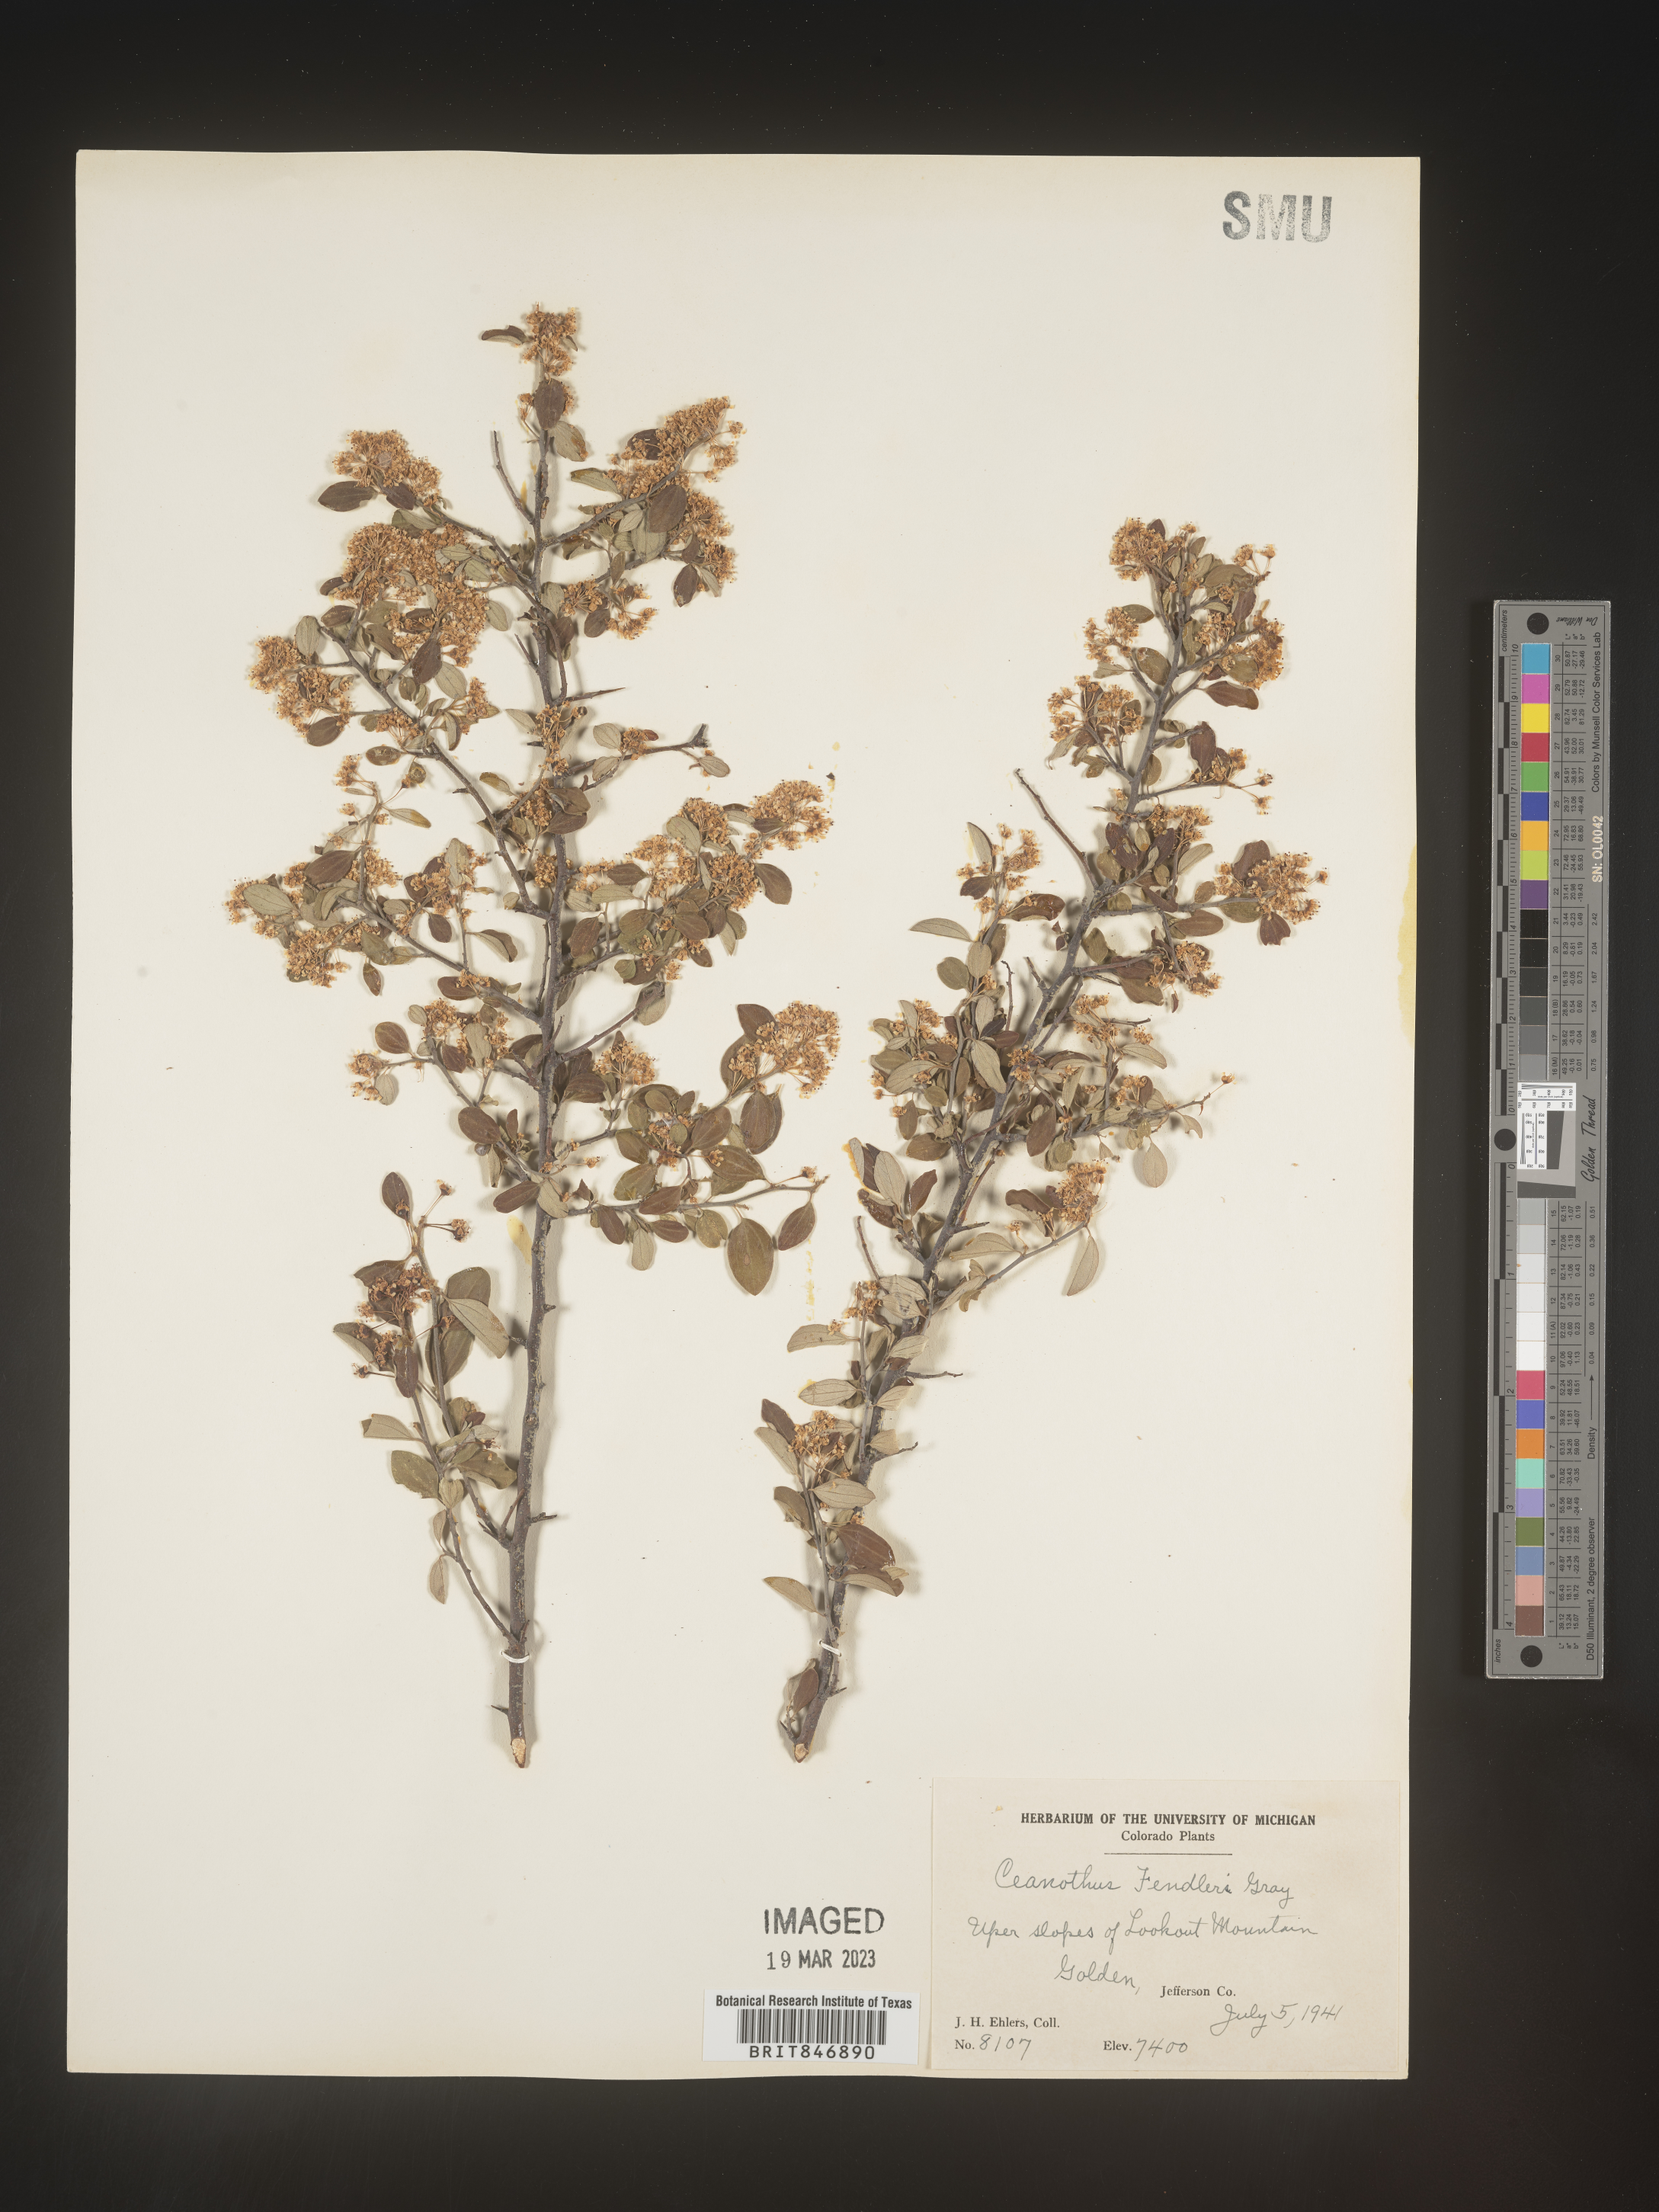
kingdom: Plantae
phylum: Tracheophyta
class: Magnoliopsida
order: Rosales
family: Rhamnaceae
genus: Ceanothus
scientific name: Ceanothus fendleri
